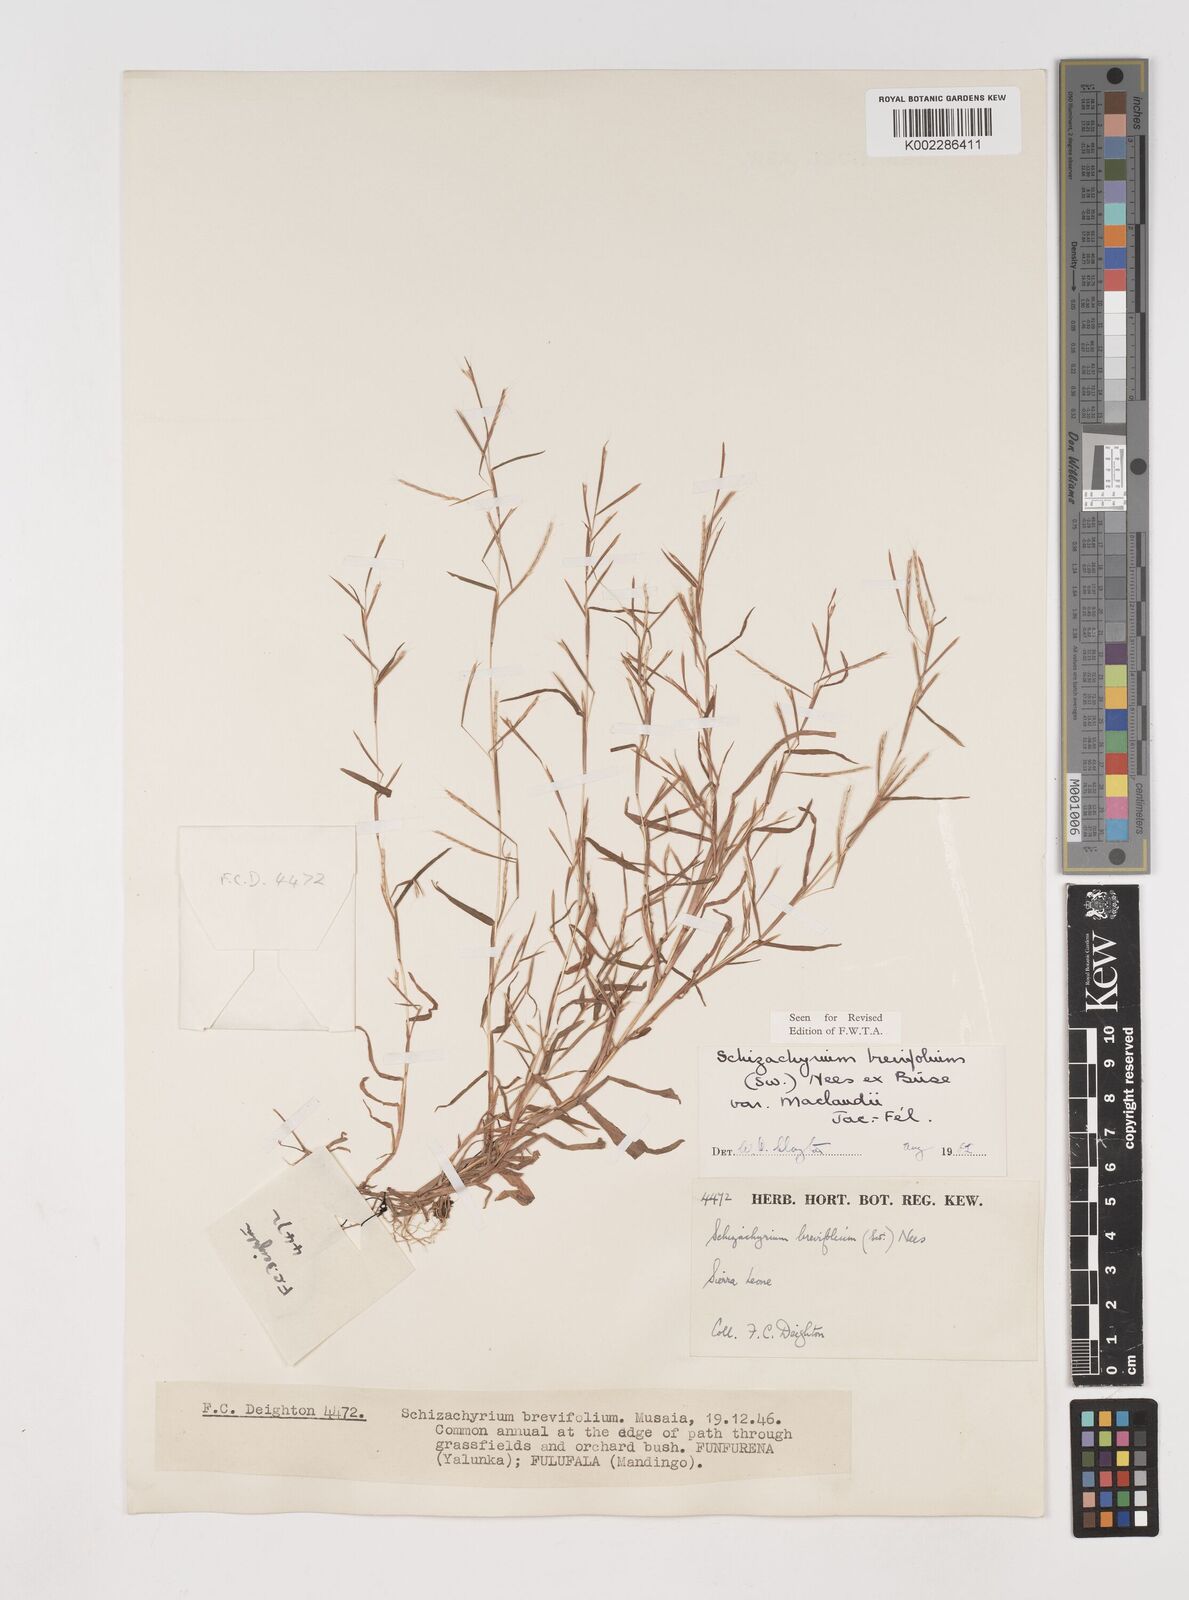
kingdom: Plantae
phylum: Tracheophyta
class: Liliopsida
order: Poales
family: Poaceae
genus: Schizachyrium
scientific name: Schizachyrium maclaudii
